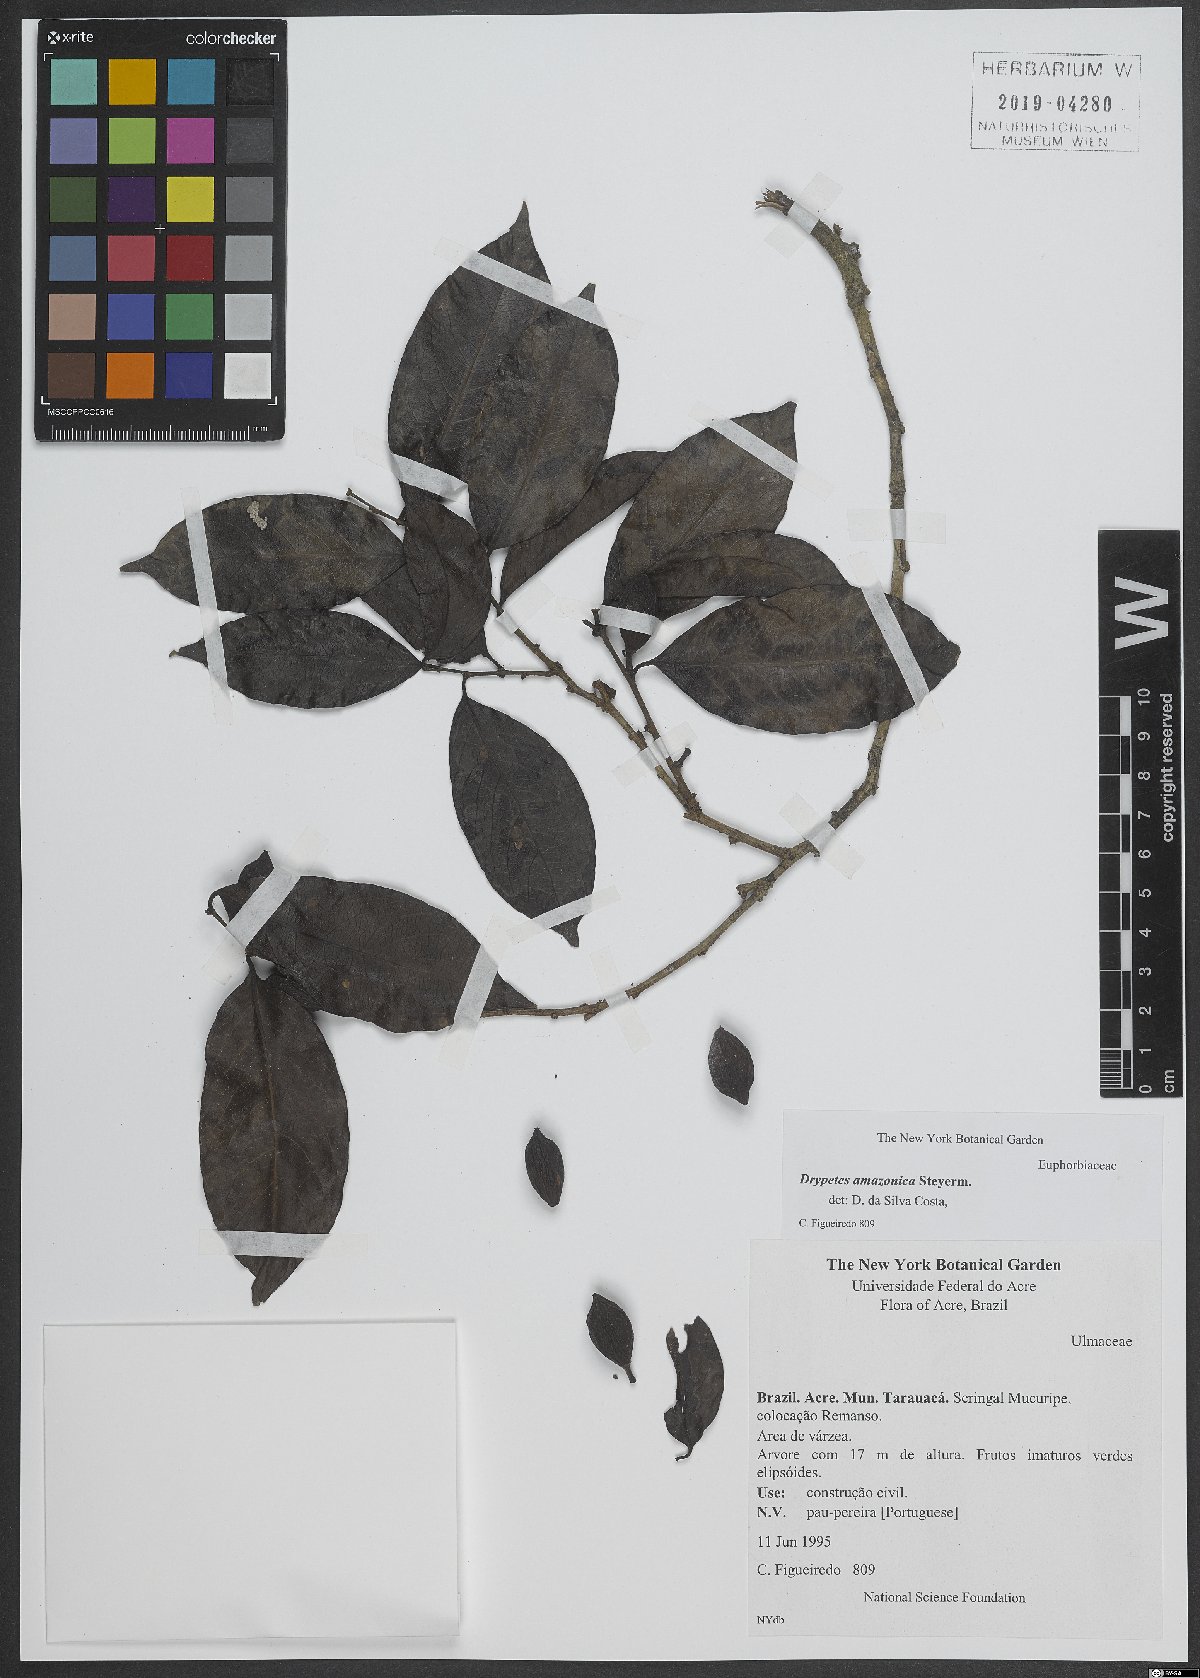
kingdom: Plantae
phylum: Tracheophyta
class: Magnoliopsida
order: Malpighiales
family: Putranjivaceae
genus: Drypetes
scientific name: Drypetes amazonica
